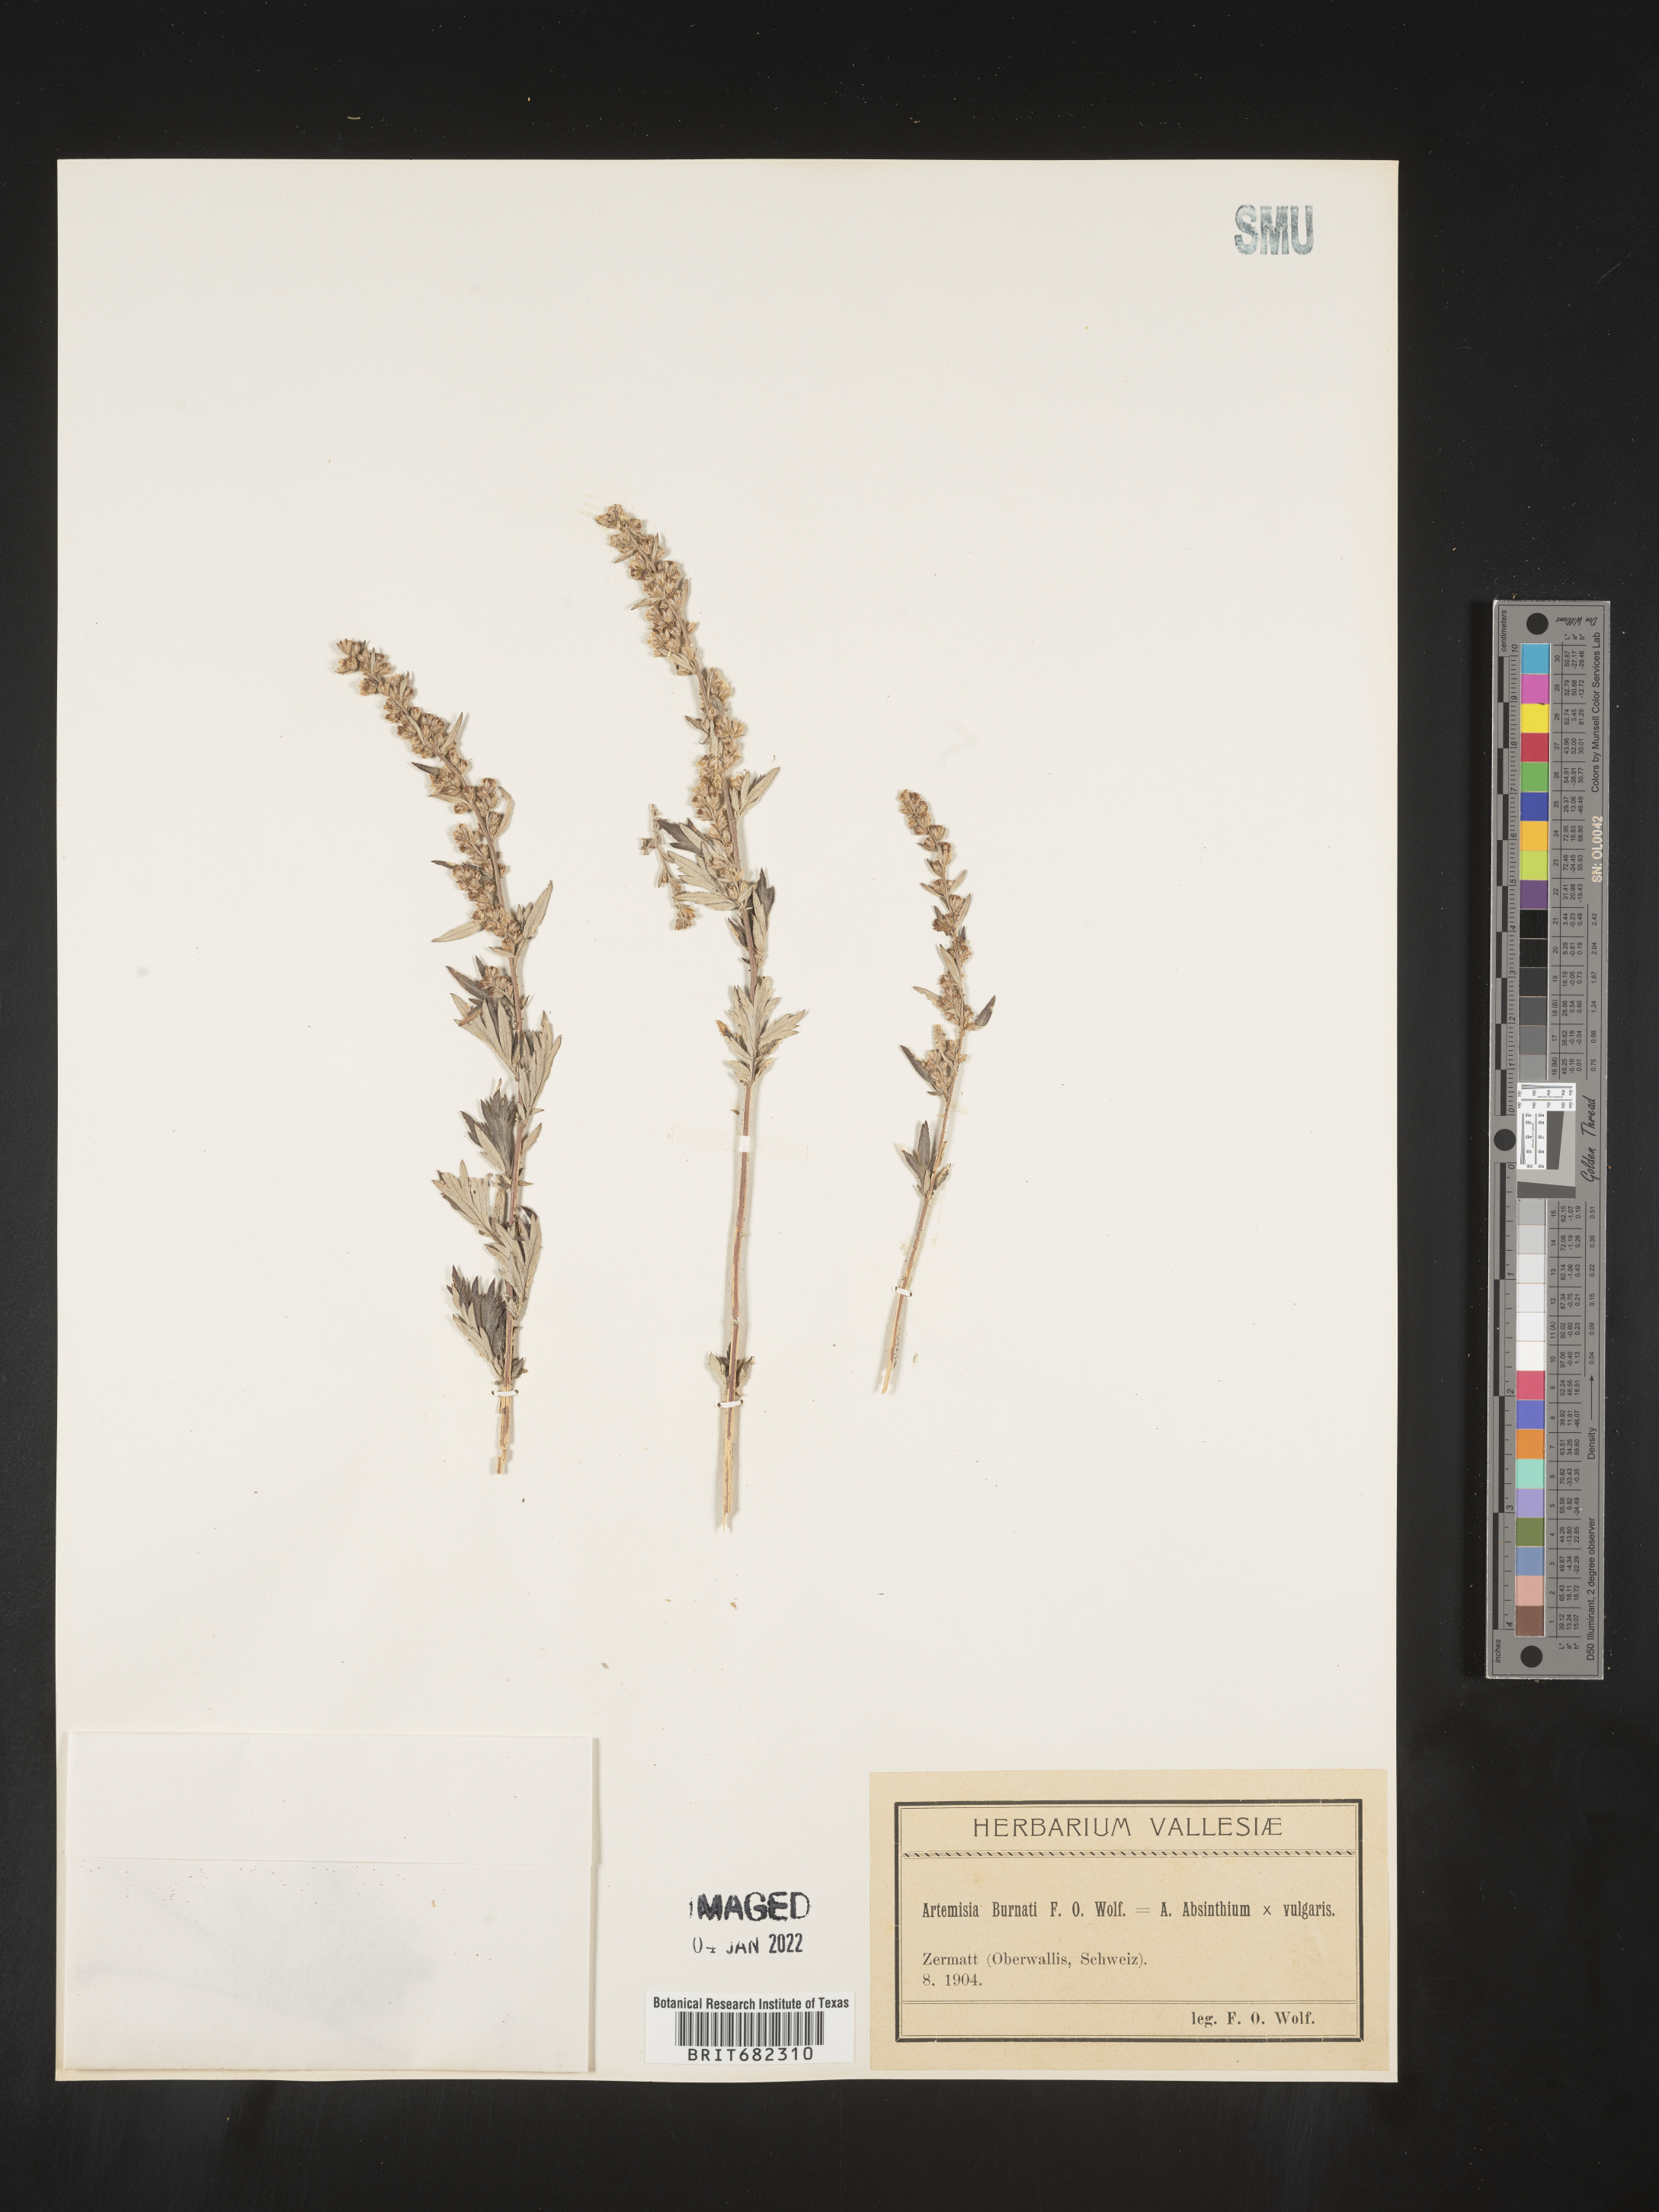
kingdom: Plantae
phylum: Tracheophyta
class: Magnoliopsida
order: Asterales
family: Asteraceae
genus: Artemisia
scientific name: Artemisia
